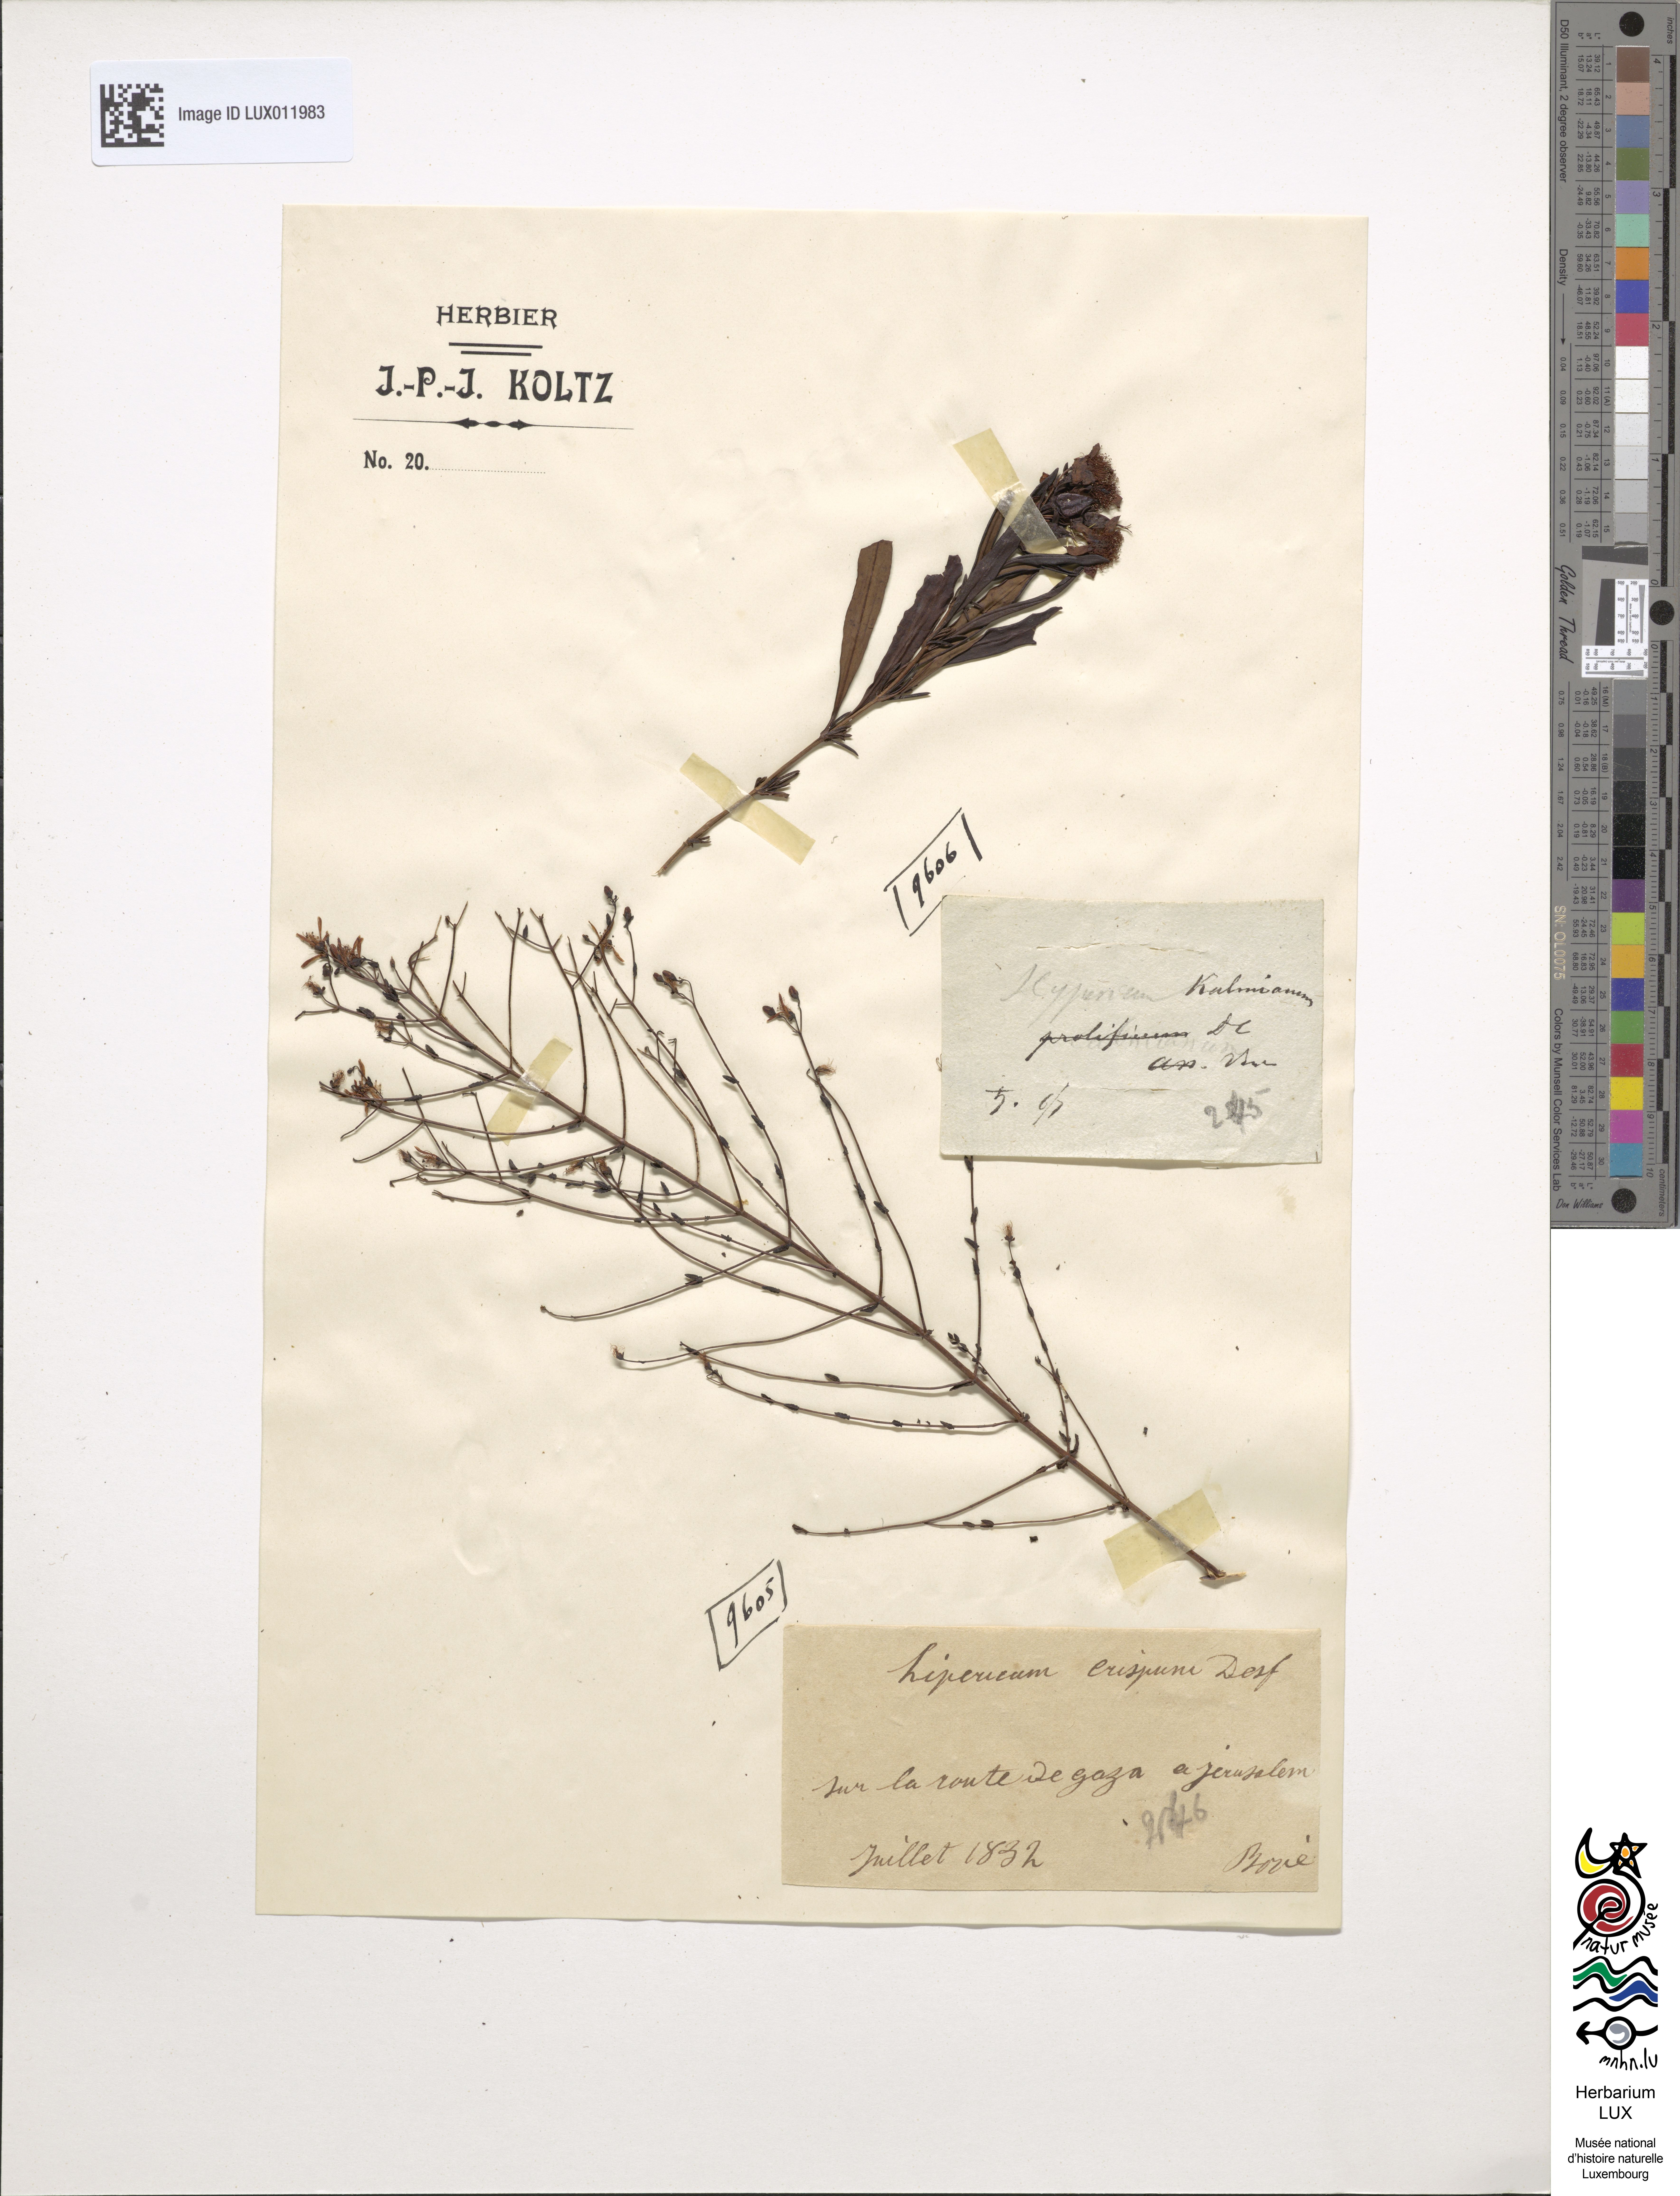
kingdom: Plantae
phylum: Tracheophyta
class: Magnoliopsida
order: Malpighiales
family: Hypericaceae
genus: Hypericum
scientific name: Hypericum kalmianum
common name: Kalm's st. john's-wort
